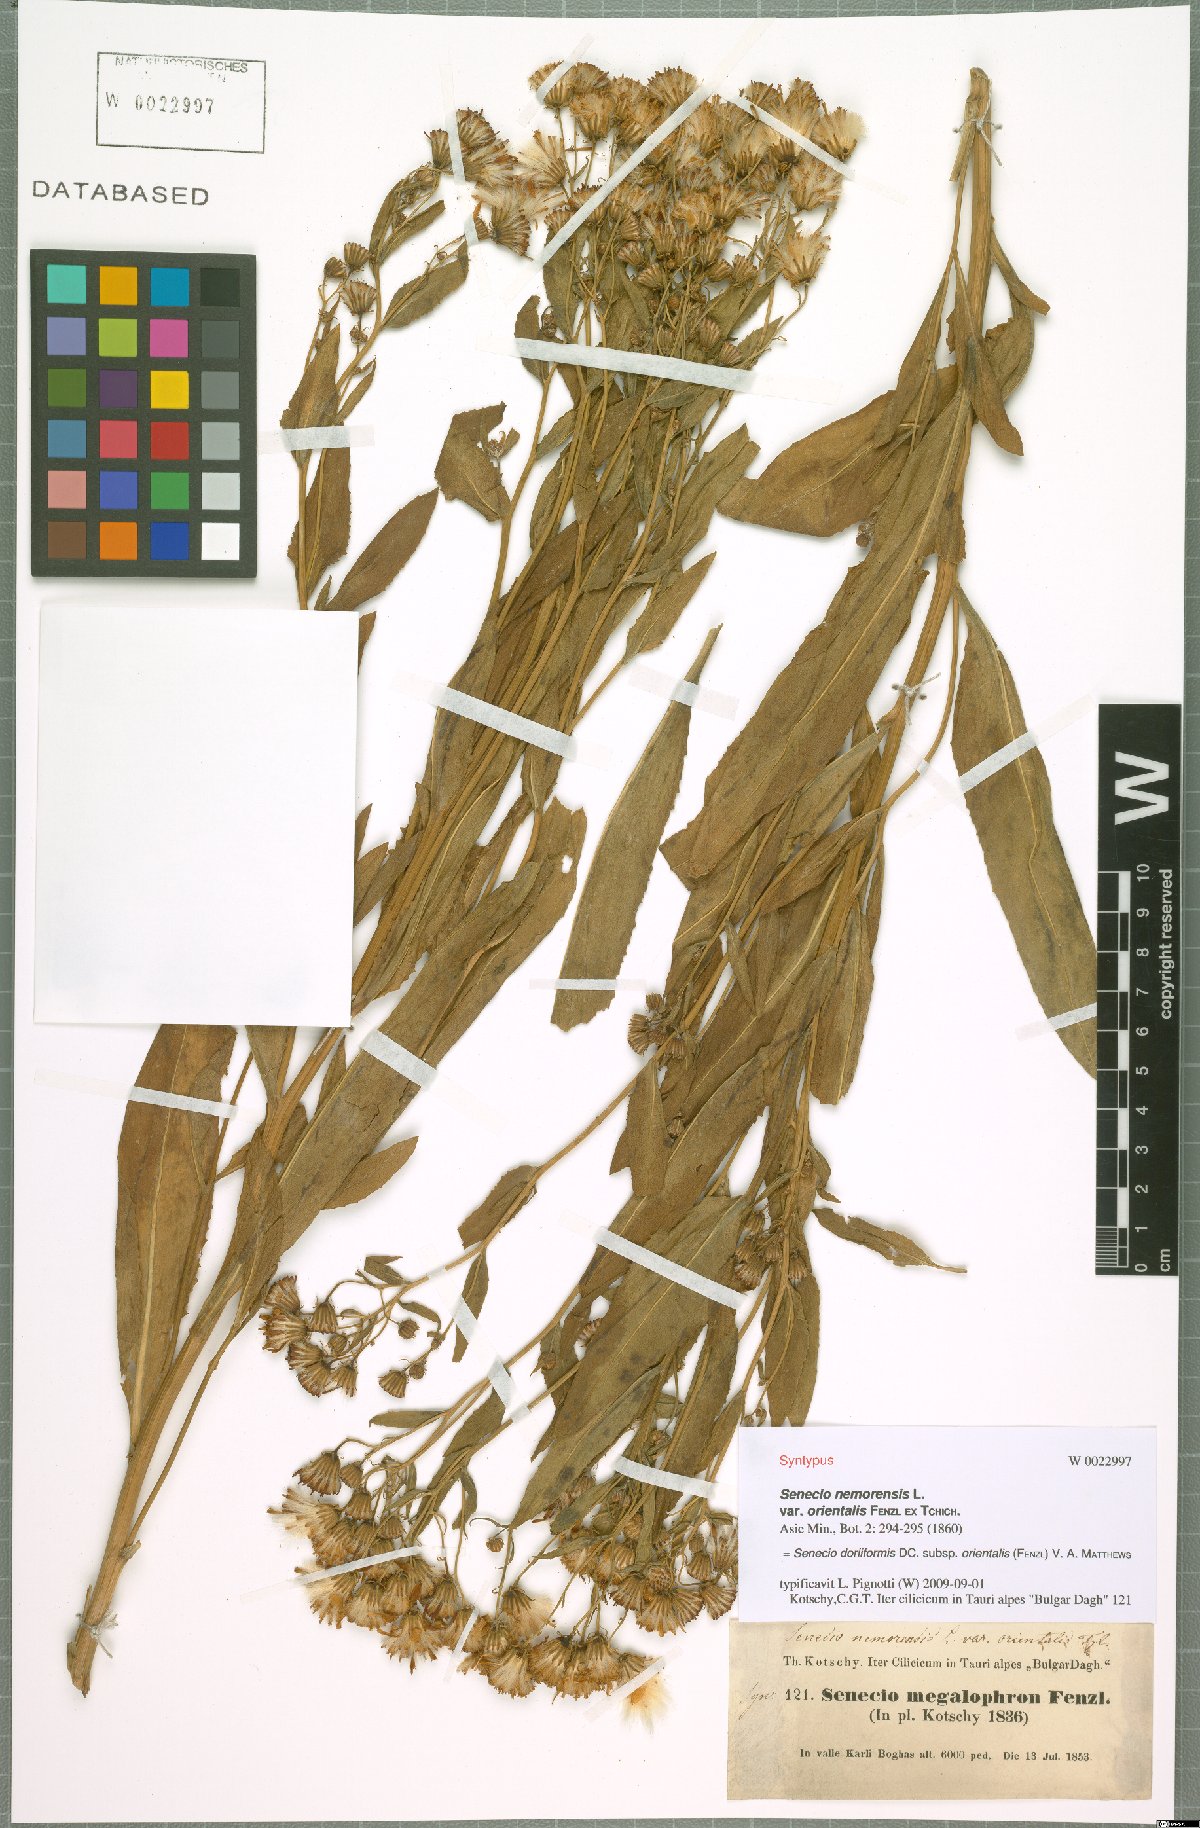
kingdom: Plantae
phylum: Tracheophyta
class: Magnoliopsida
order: Asterales
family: Asteraceae
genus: Senecio
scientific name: Senecio doriiformis
